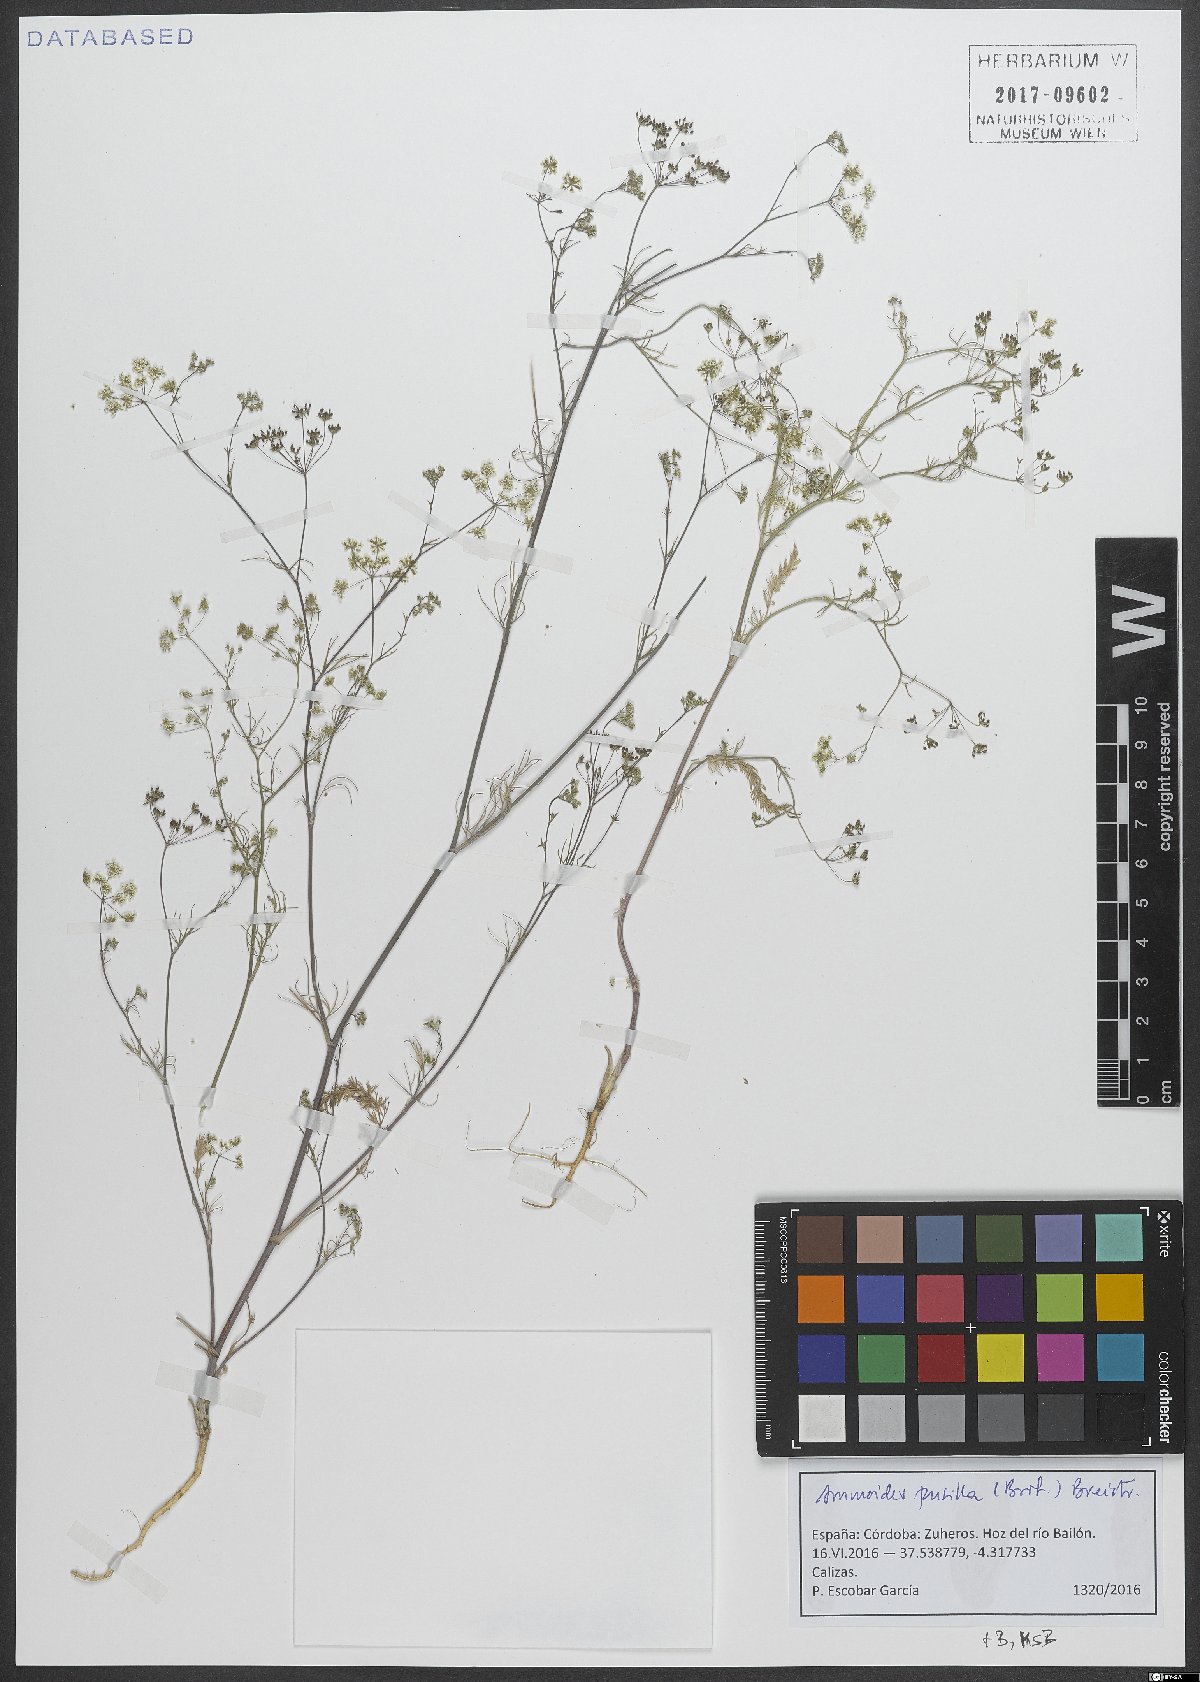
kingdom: Plantae
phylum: Tracheophyta
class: Magnoliopsida
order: Apiales
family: Apiaceae
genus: Ammoides
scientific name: Ammoides pusilla
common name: Cerfolium
